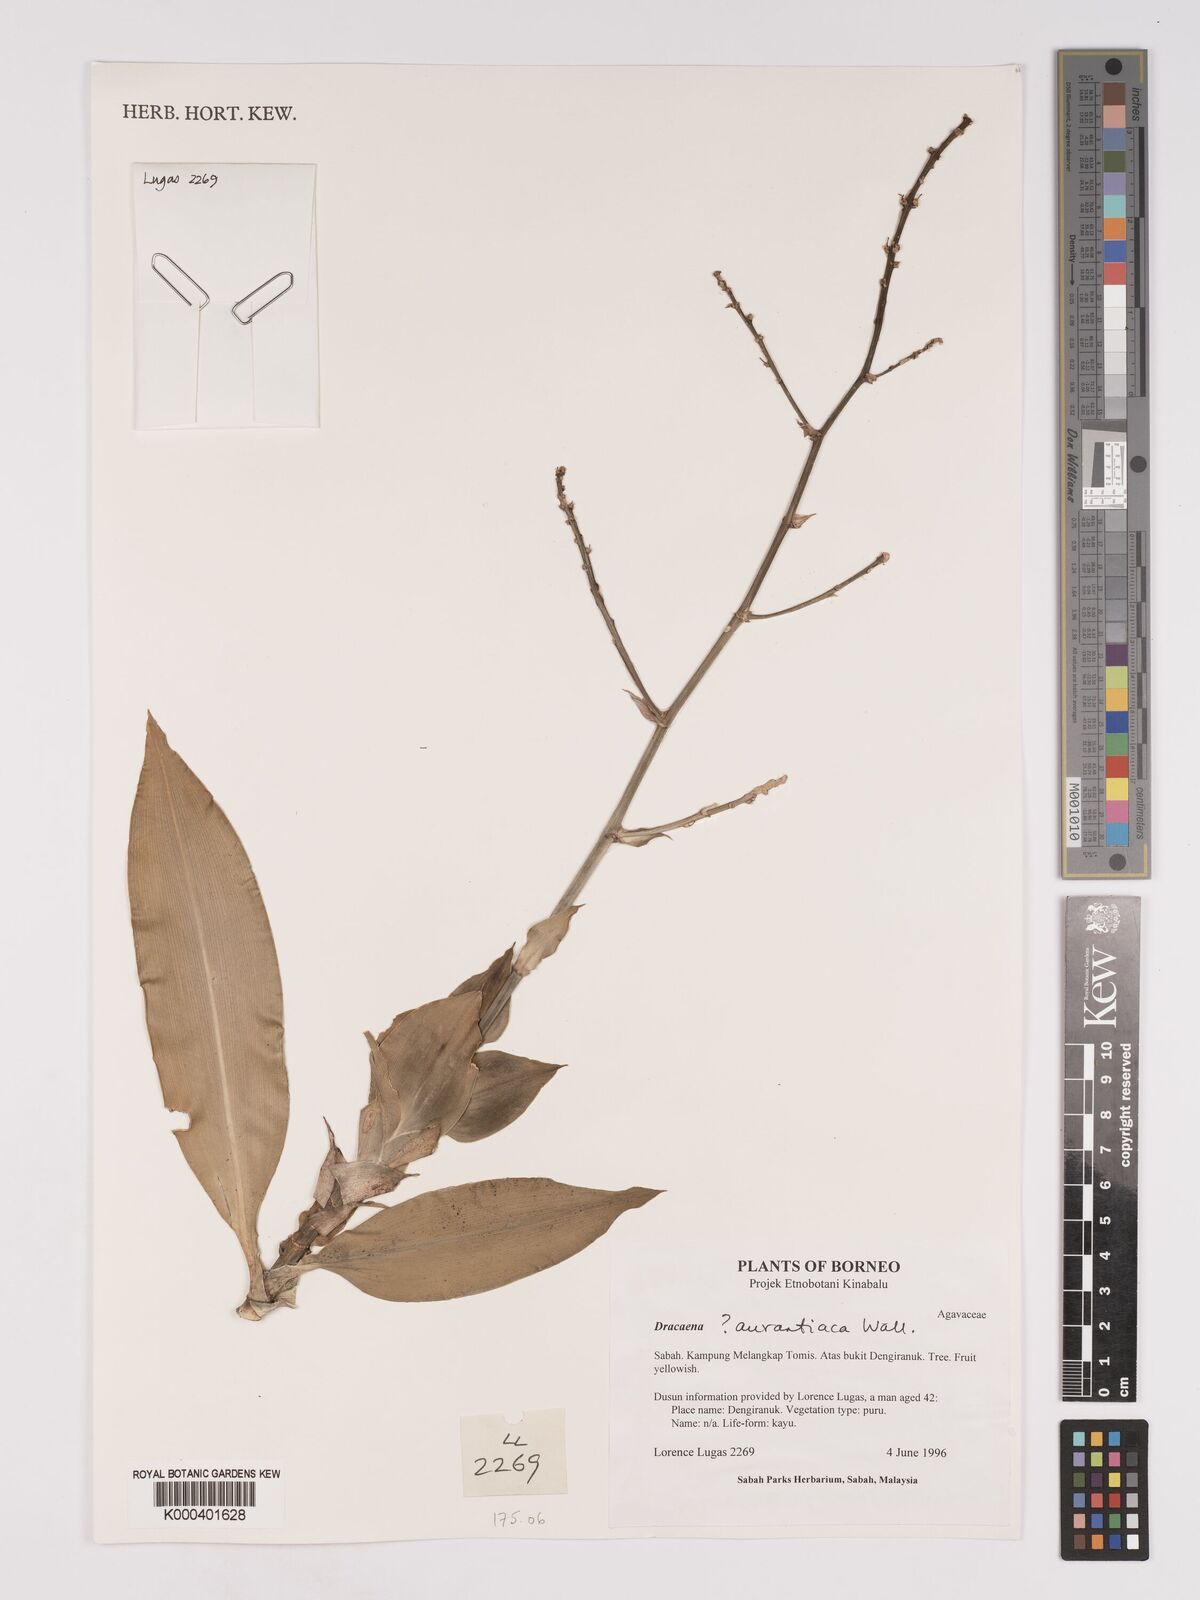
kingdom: Plantae
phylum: Tracheophyta
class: Liliopsida
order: Asparagales
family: Asparagaceae
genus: Dracaena
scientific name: Dracaena
